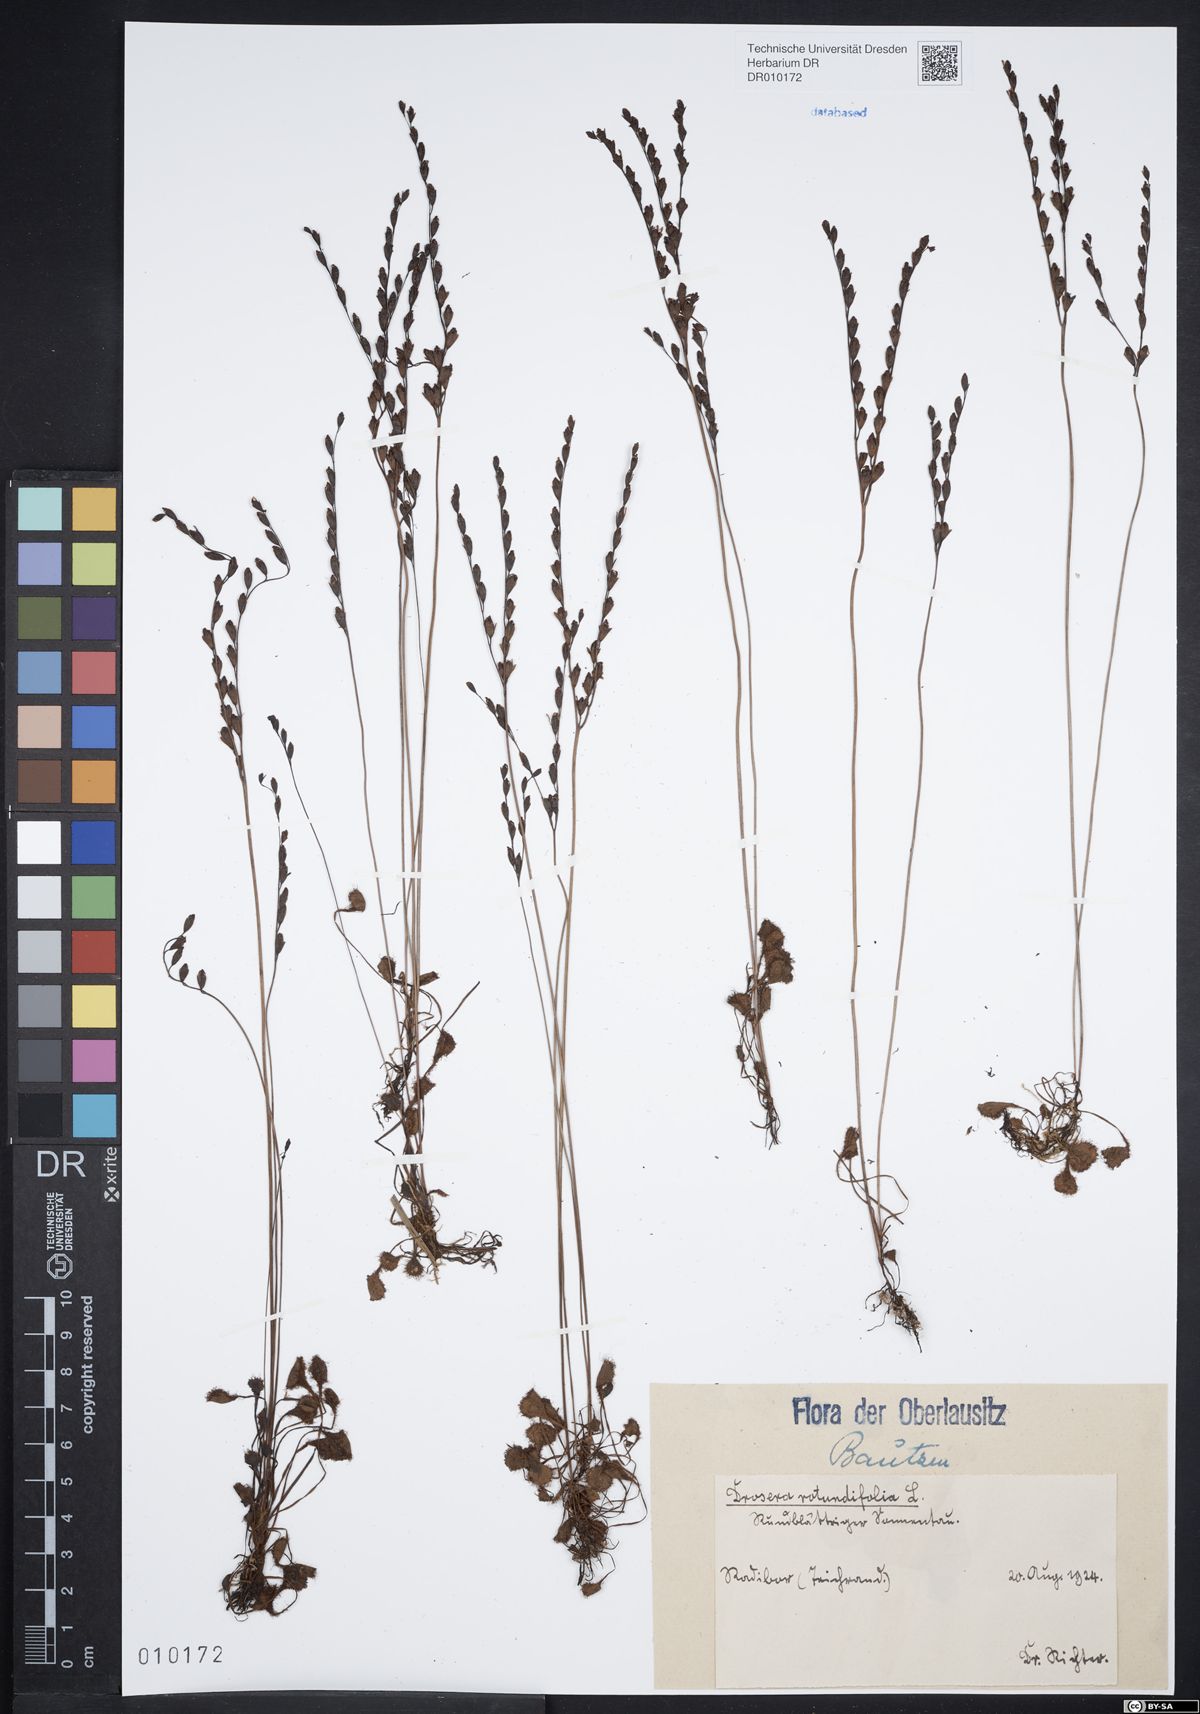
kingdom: Plantae
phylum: Tracheophyta
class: Magnoliopsida
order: Caryophyllales
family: Droseraceae
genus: Drosera
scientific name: Drosera rotundifolia
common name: Round-leaved sundew
